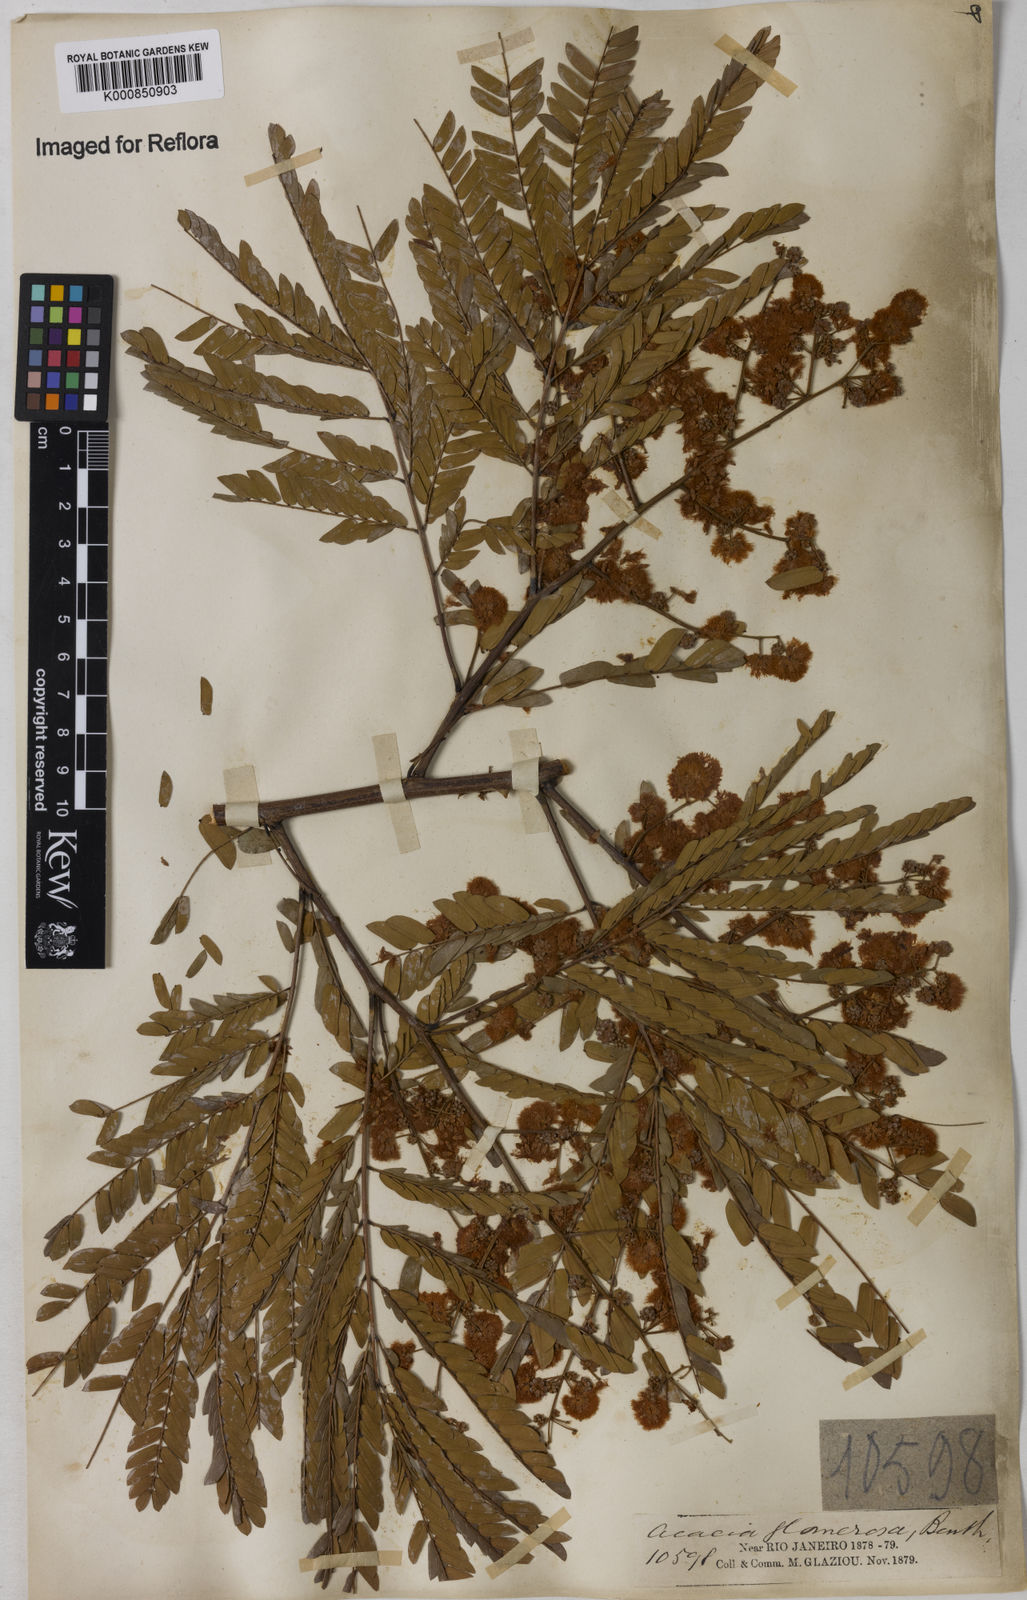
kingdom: Plantae
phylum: Tracheophyta
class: Magnoliopsida
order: Fabales
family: Fabaceae
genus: Senegalia
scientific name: Senegalia polyphylla
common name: White-tamarind
